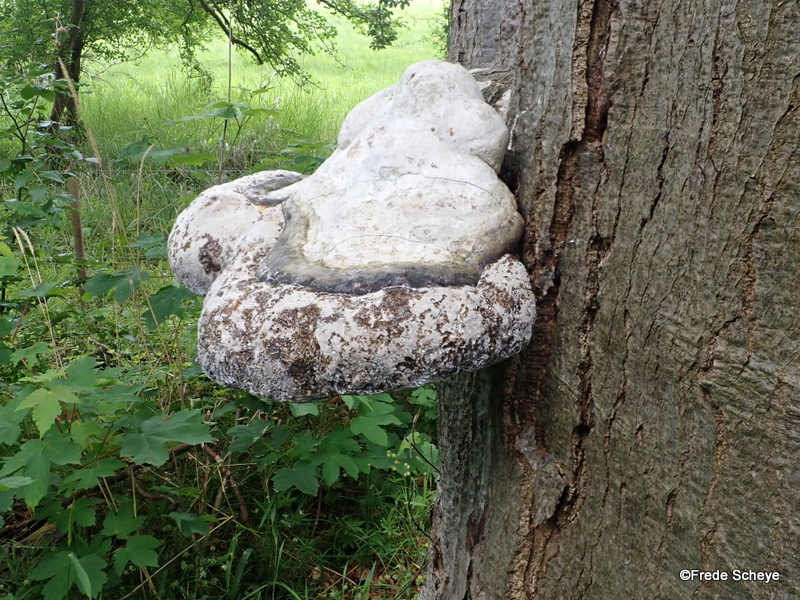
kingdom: Fungi
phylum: Basidiomycota
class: Agaricomycetes
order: Polyporales
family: Polyporaceae
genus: Fomes
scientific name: Fomes fomentarius
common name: tøndersvamp
